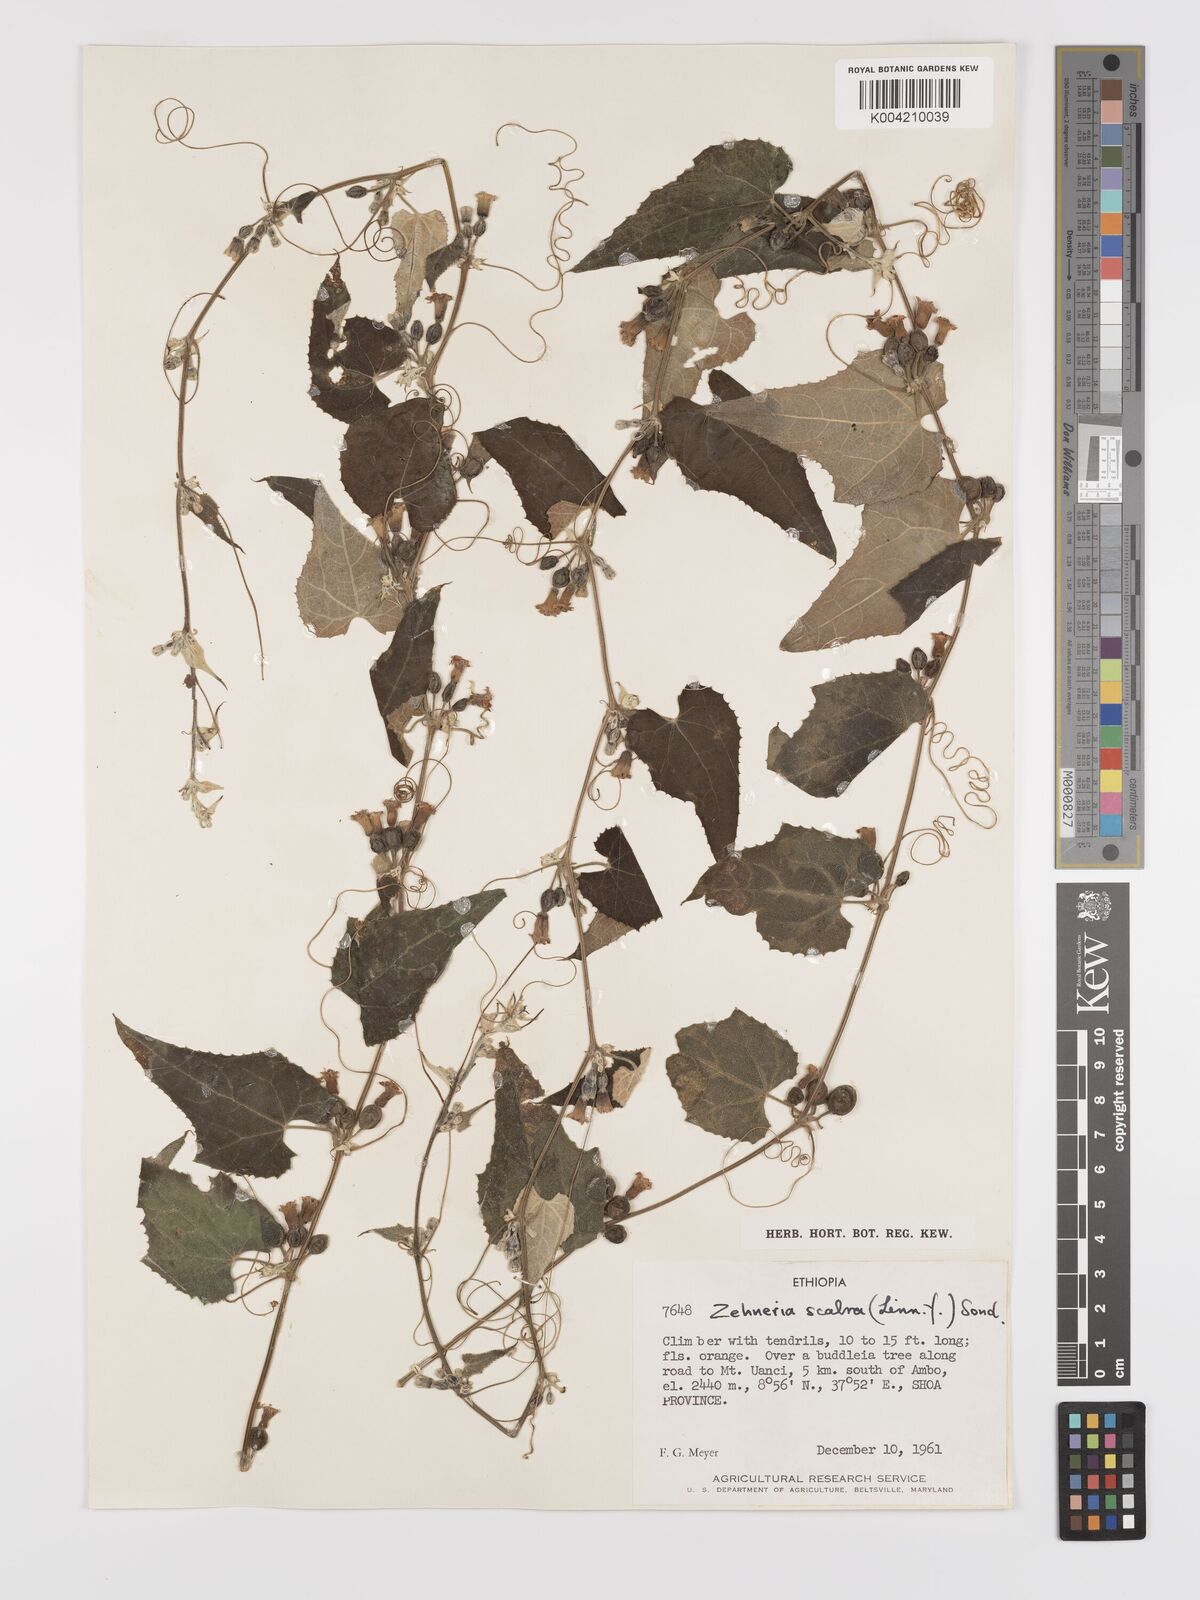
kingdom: Plantae
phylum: Tracheophyta
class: Magnoliopsida
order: Cucurbitales
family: Cucurbitaceae
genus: Zehneria
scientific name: Zehneria scabra
